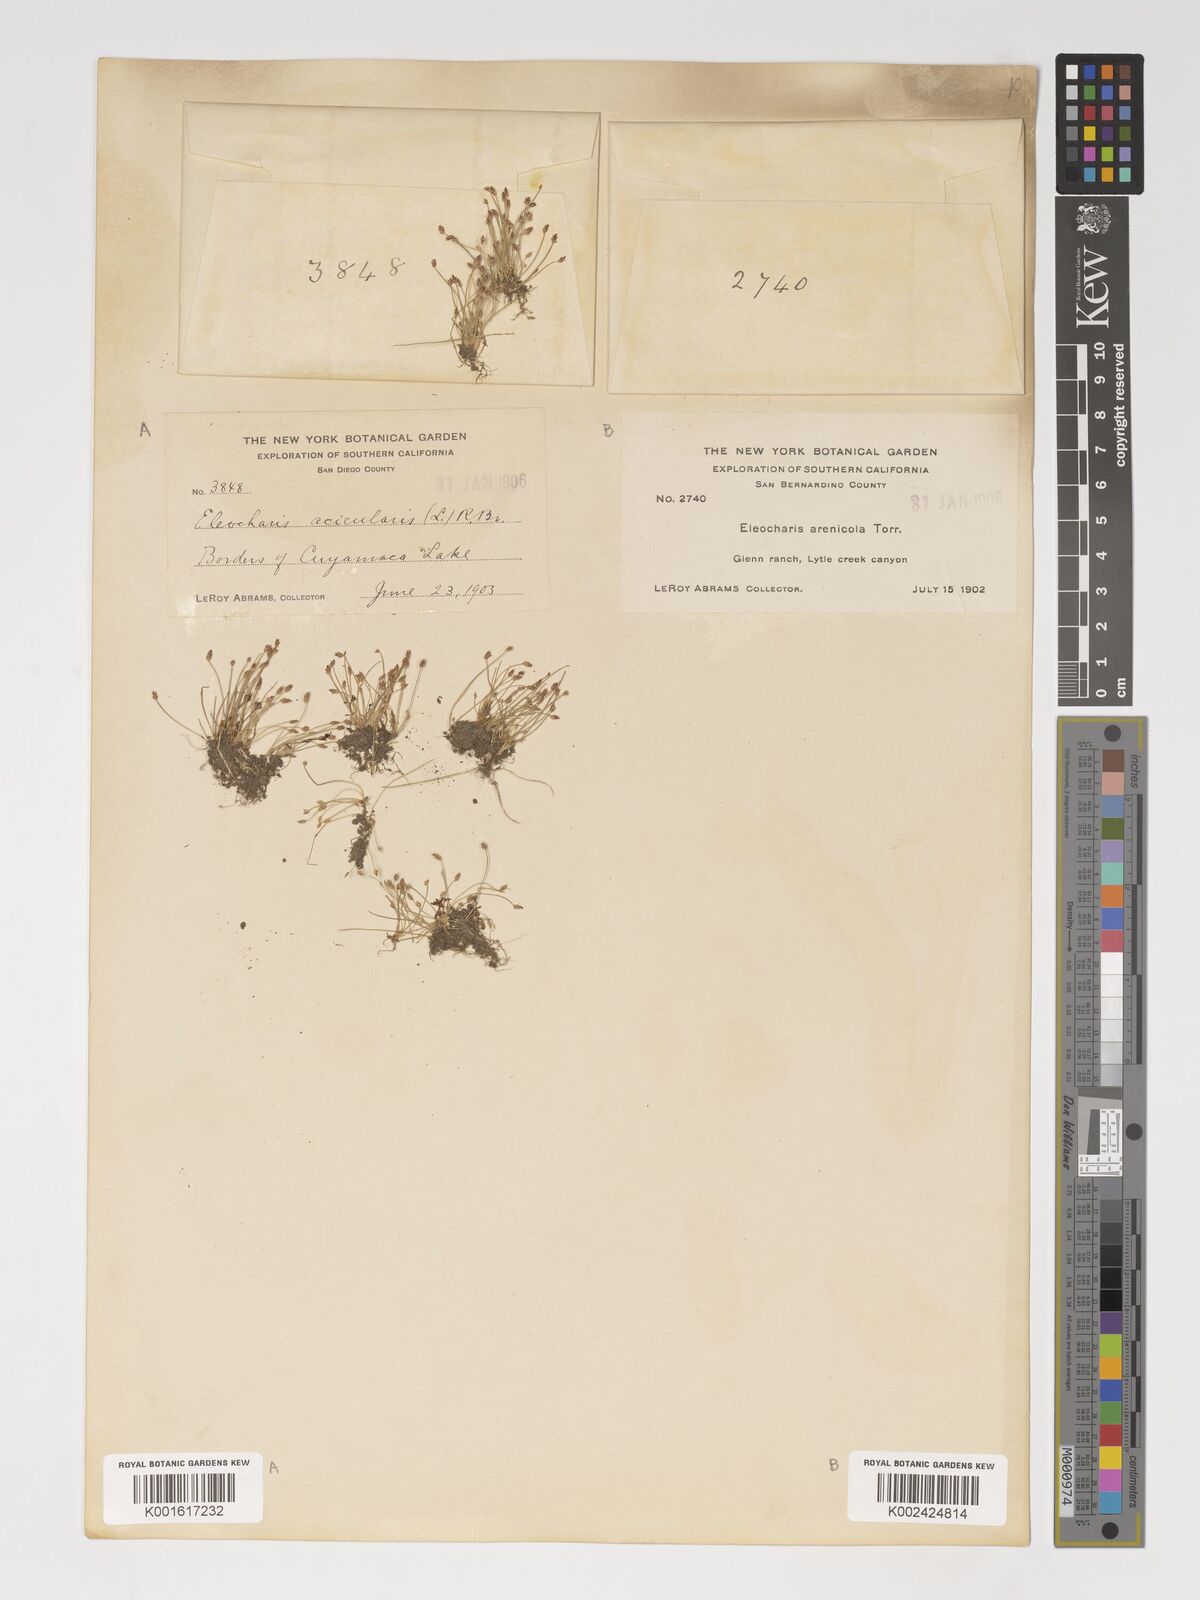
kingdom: Plantae
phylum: Tracheophyta
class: Liliopsida
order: Poales
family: Cyperaceae
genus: Eleocharis
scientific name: Eleocharis acicularis
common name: Needle spike-rush
